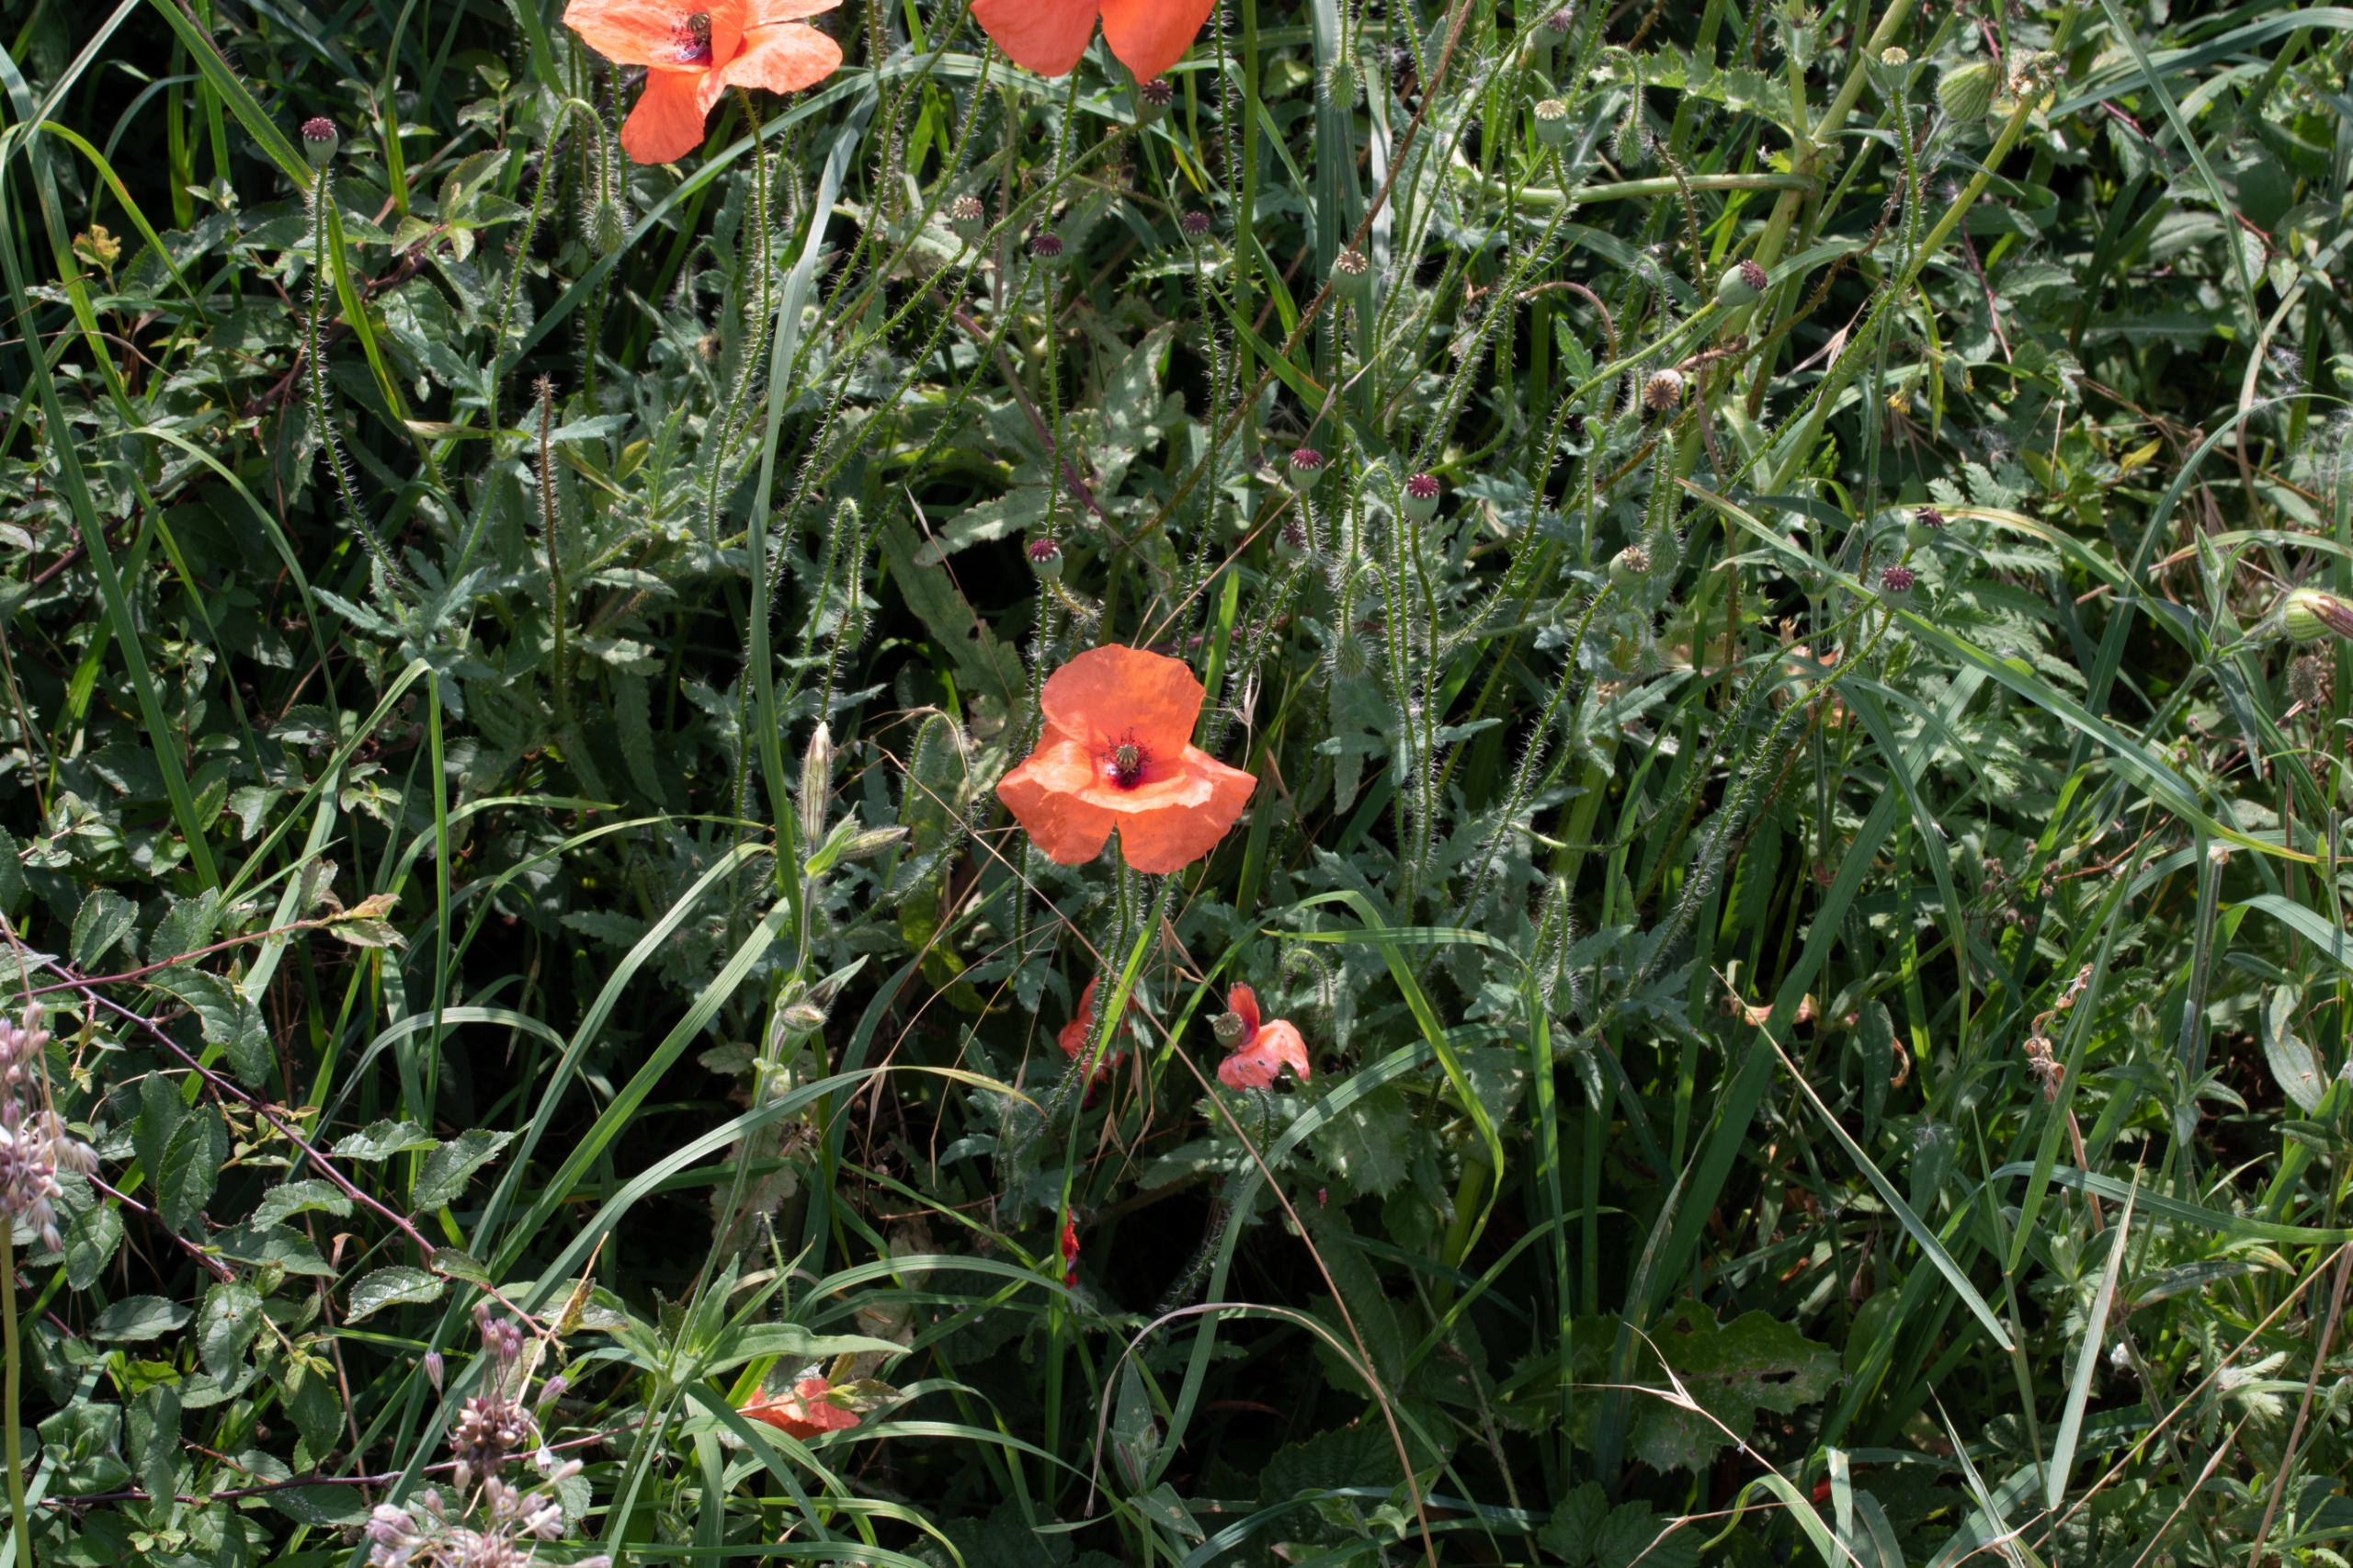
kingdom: Plantae
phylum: Tracheophyta
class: Magnoliopsida
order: Ranunculales
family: Papaveraceae
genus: Papaver
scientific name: Papaver rhoeas
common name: Korn-valmue
